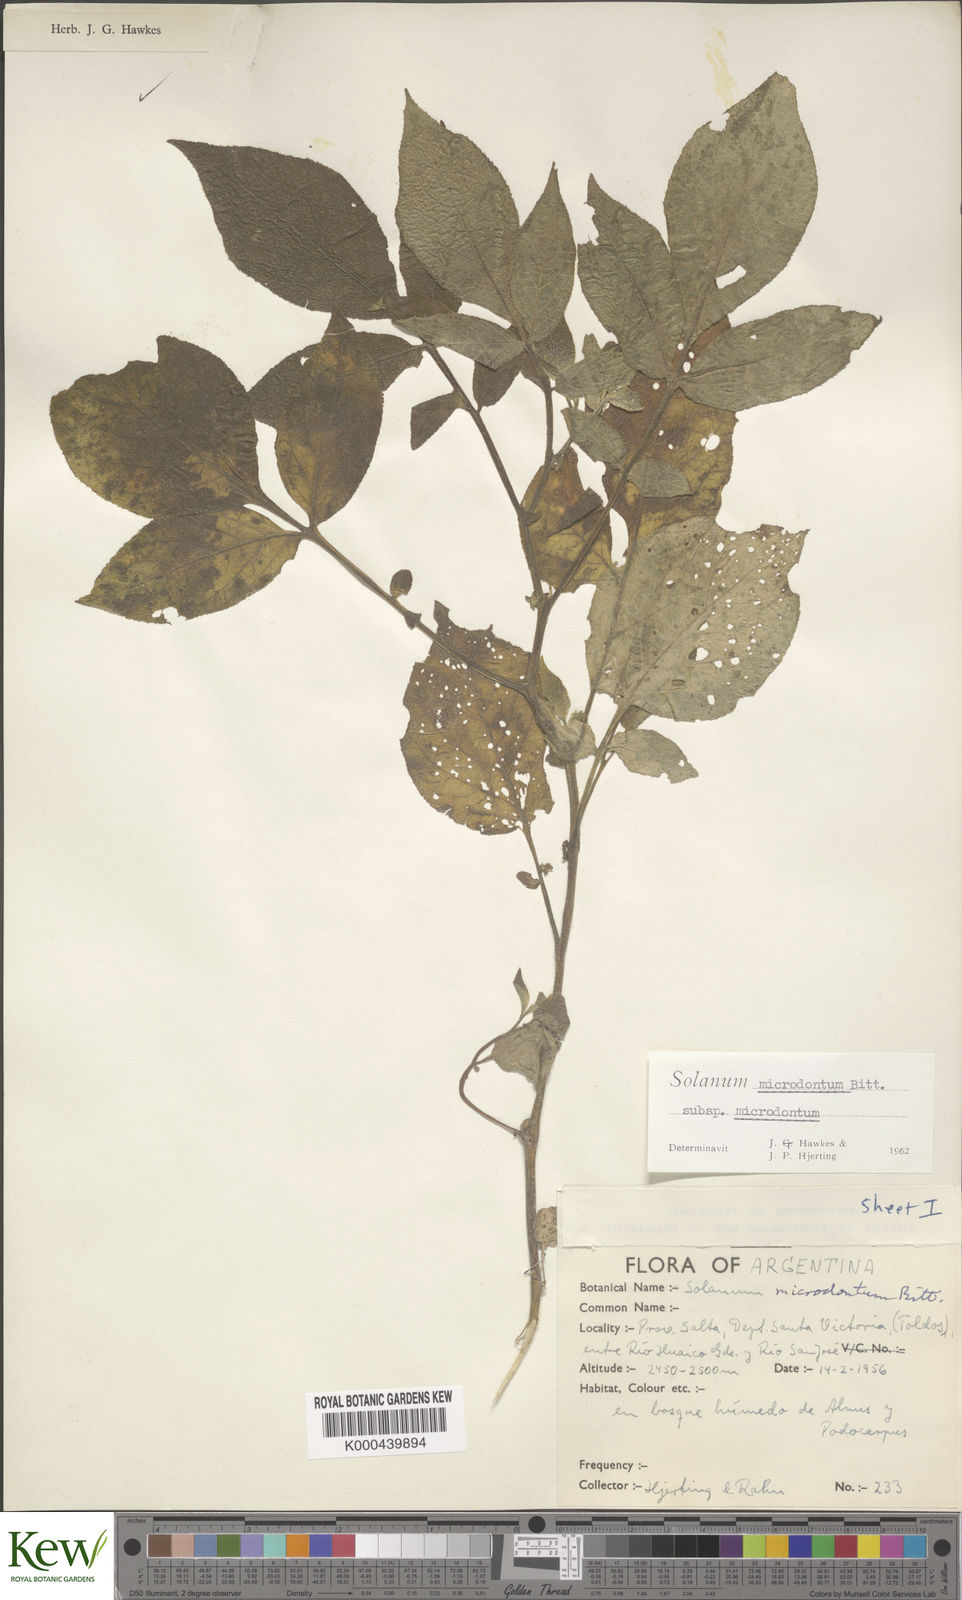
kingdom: Plantae
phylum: Tracheophyta
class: Magnoliopsida
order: Solanales
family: Solanaceae
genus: Solanum
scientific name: Solanum microdontum
